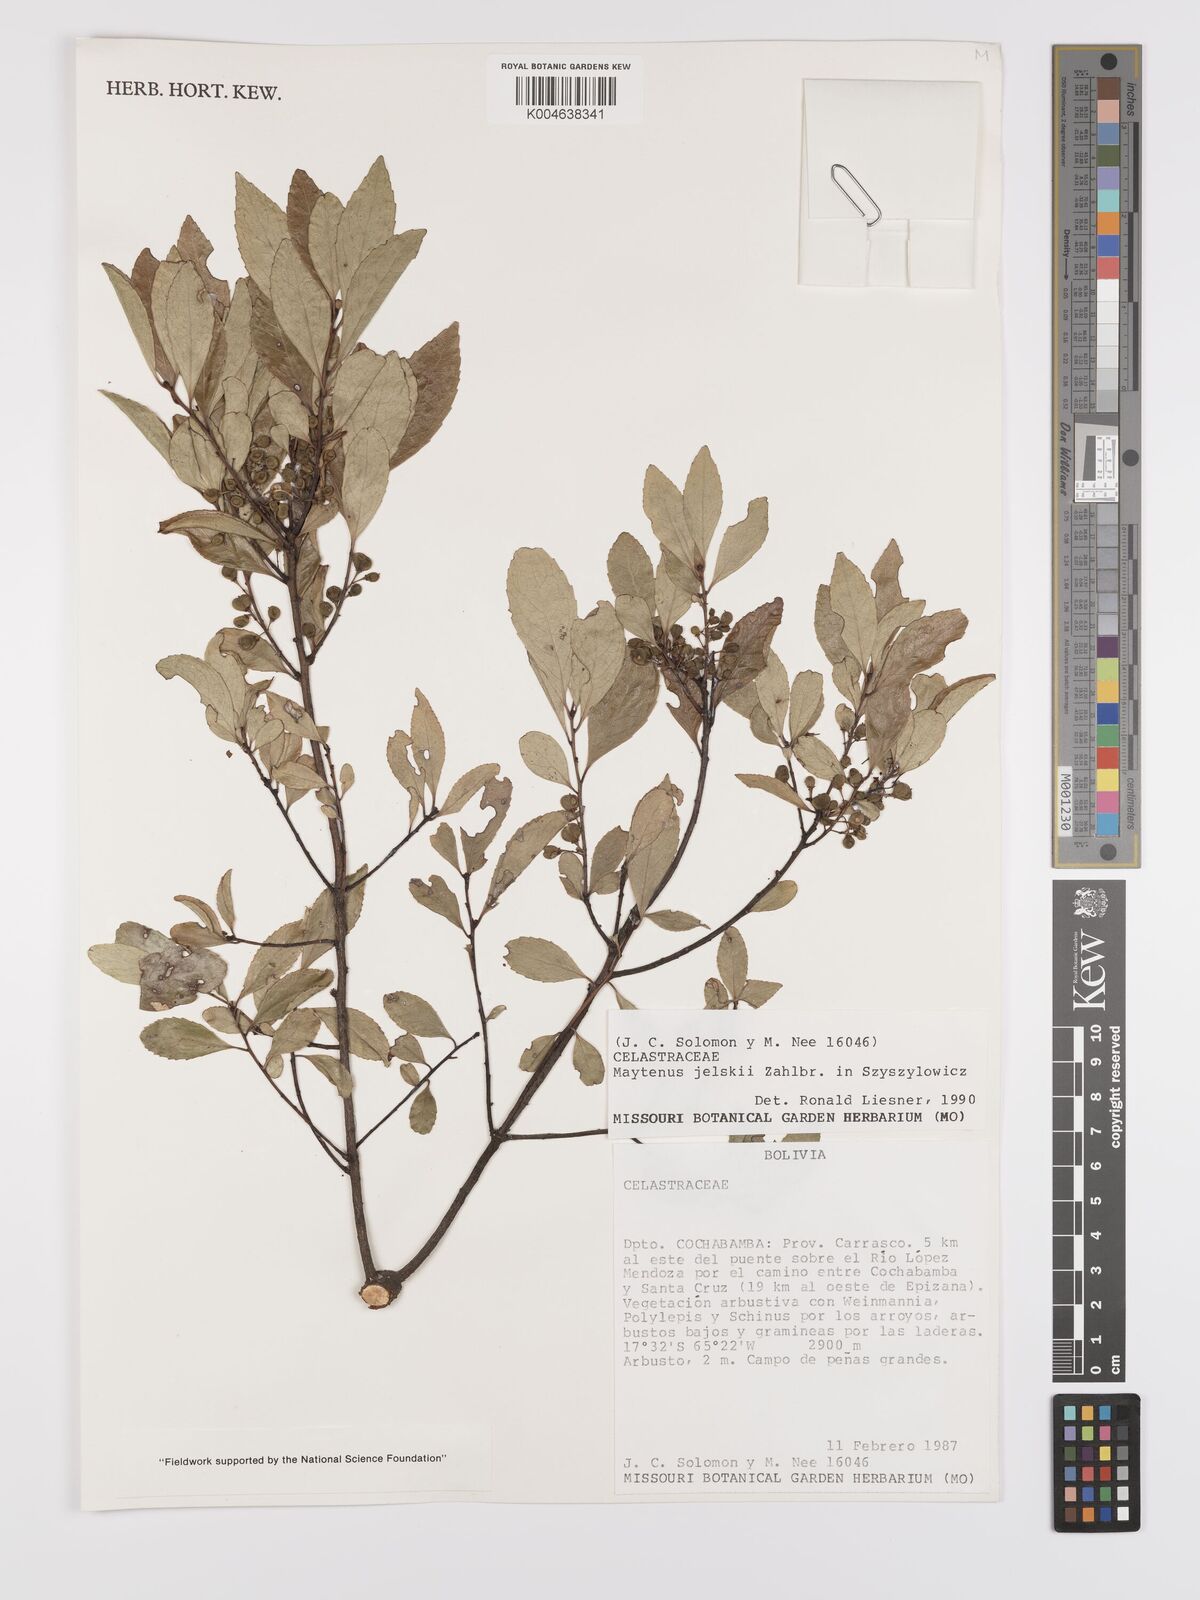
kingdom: Plantae
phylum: Tracheophyta
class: Magnoliopsida
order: Celastrales
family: Celastraceae
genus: Maytenus
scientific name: Maytenus
